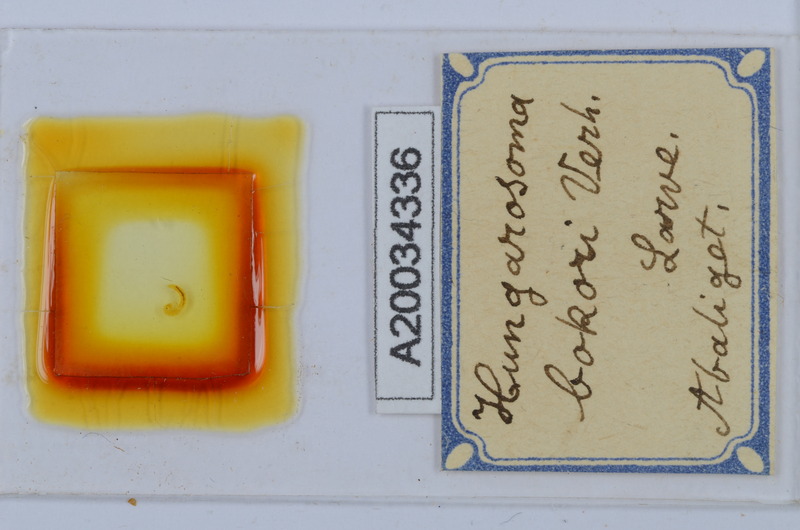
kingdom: Animalia
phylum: Arthropoda
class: Diplopoda
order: Chordeumatida
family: Hungarosomatidae
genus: Hungarosoma
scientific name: Hungarosoma bokori
